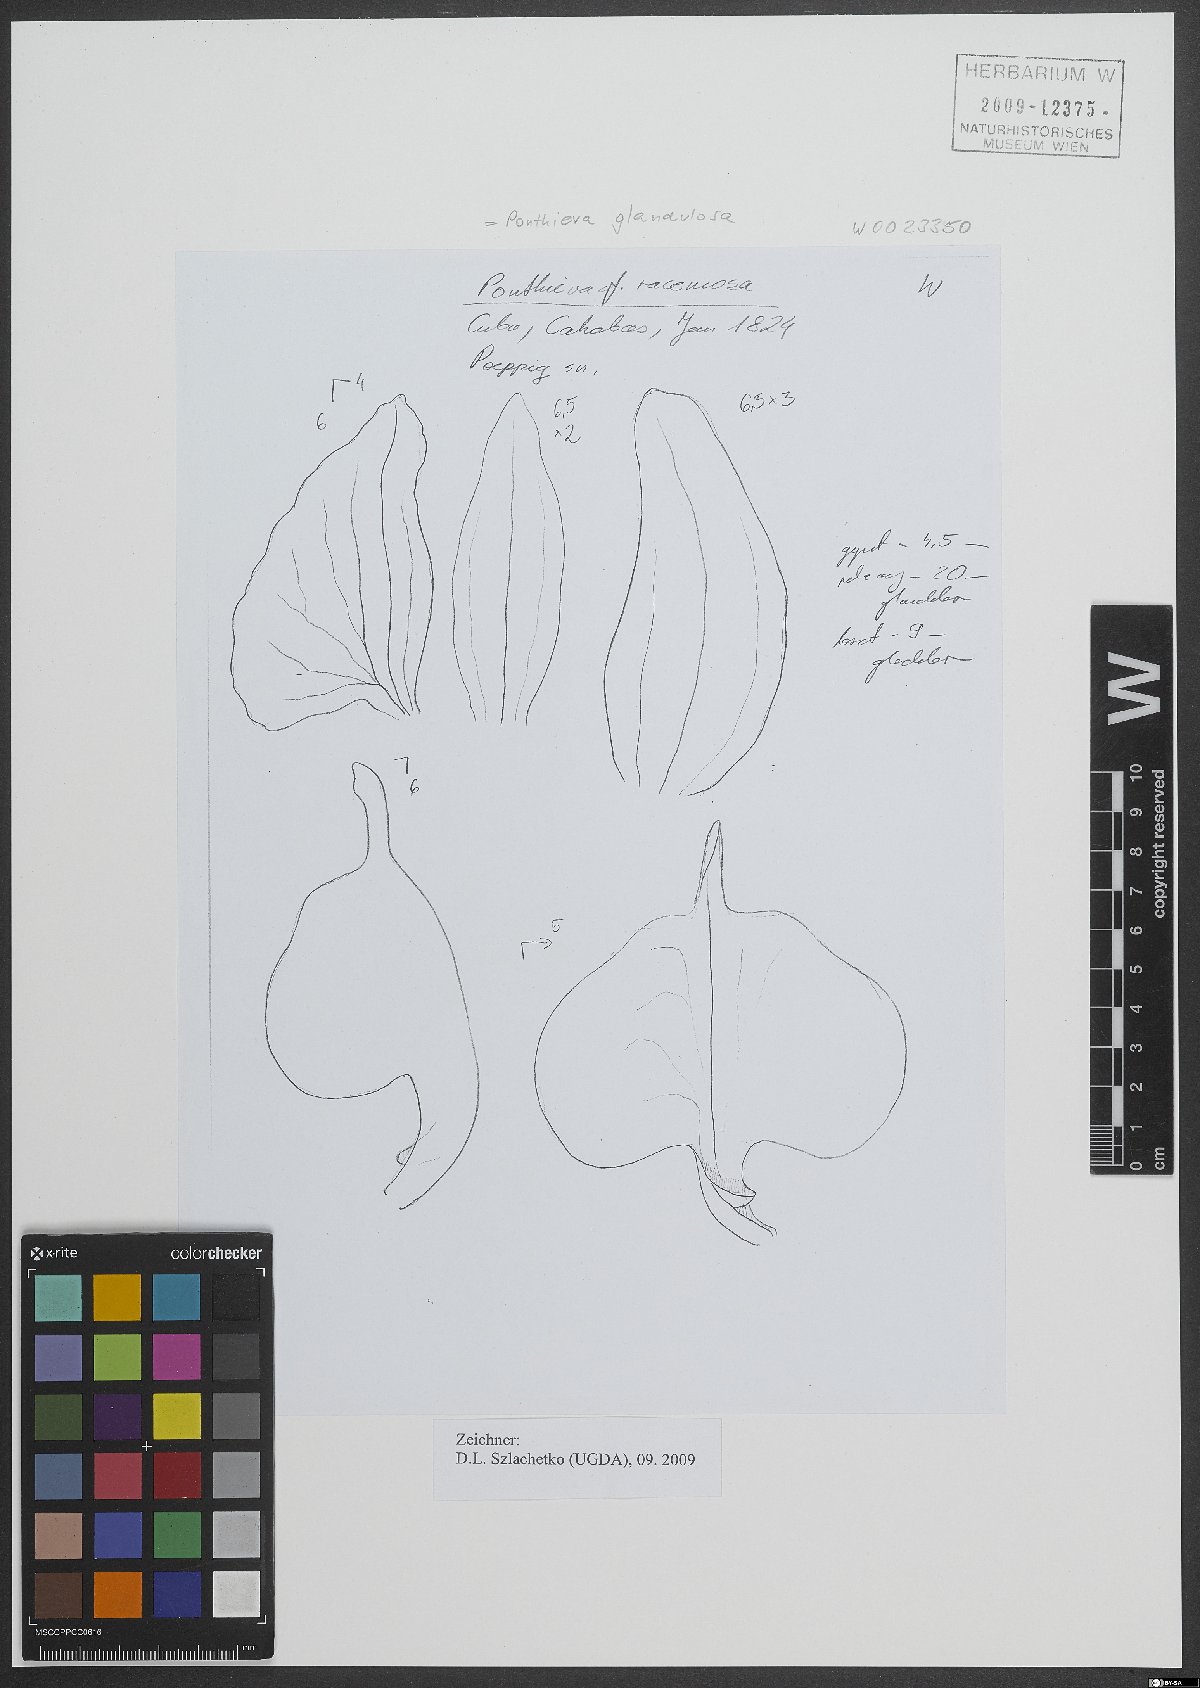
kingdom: Plantae
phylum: Tracheophyta
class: Liliopsida
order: Asparagales
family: Orchidaceae
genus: Ponthieva
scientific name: Ponthieva glandulosa
